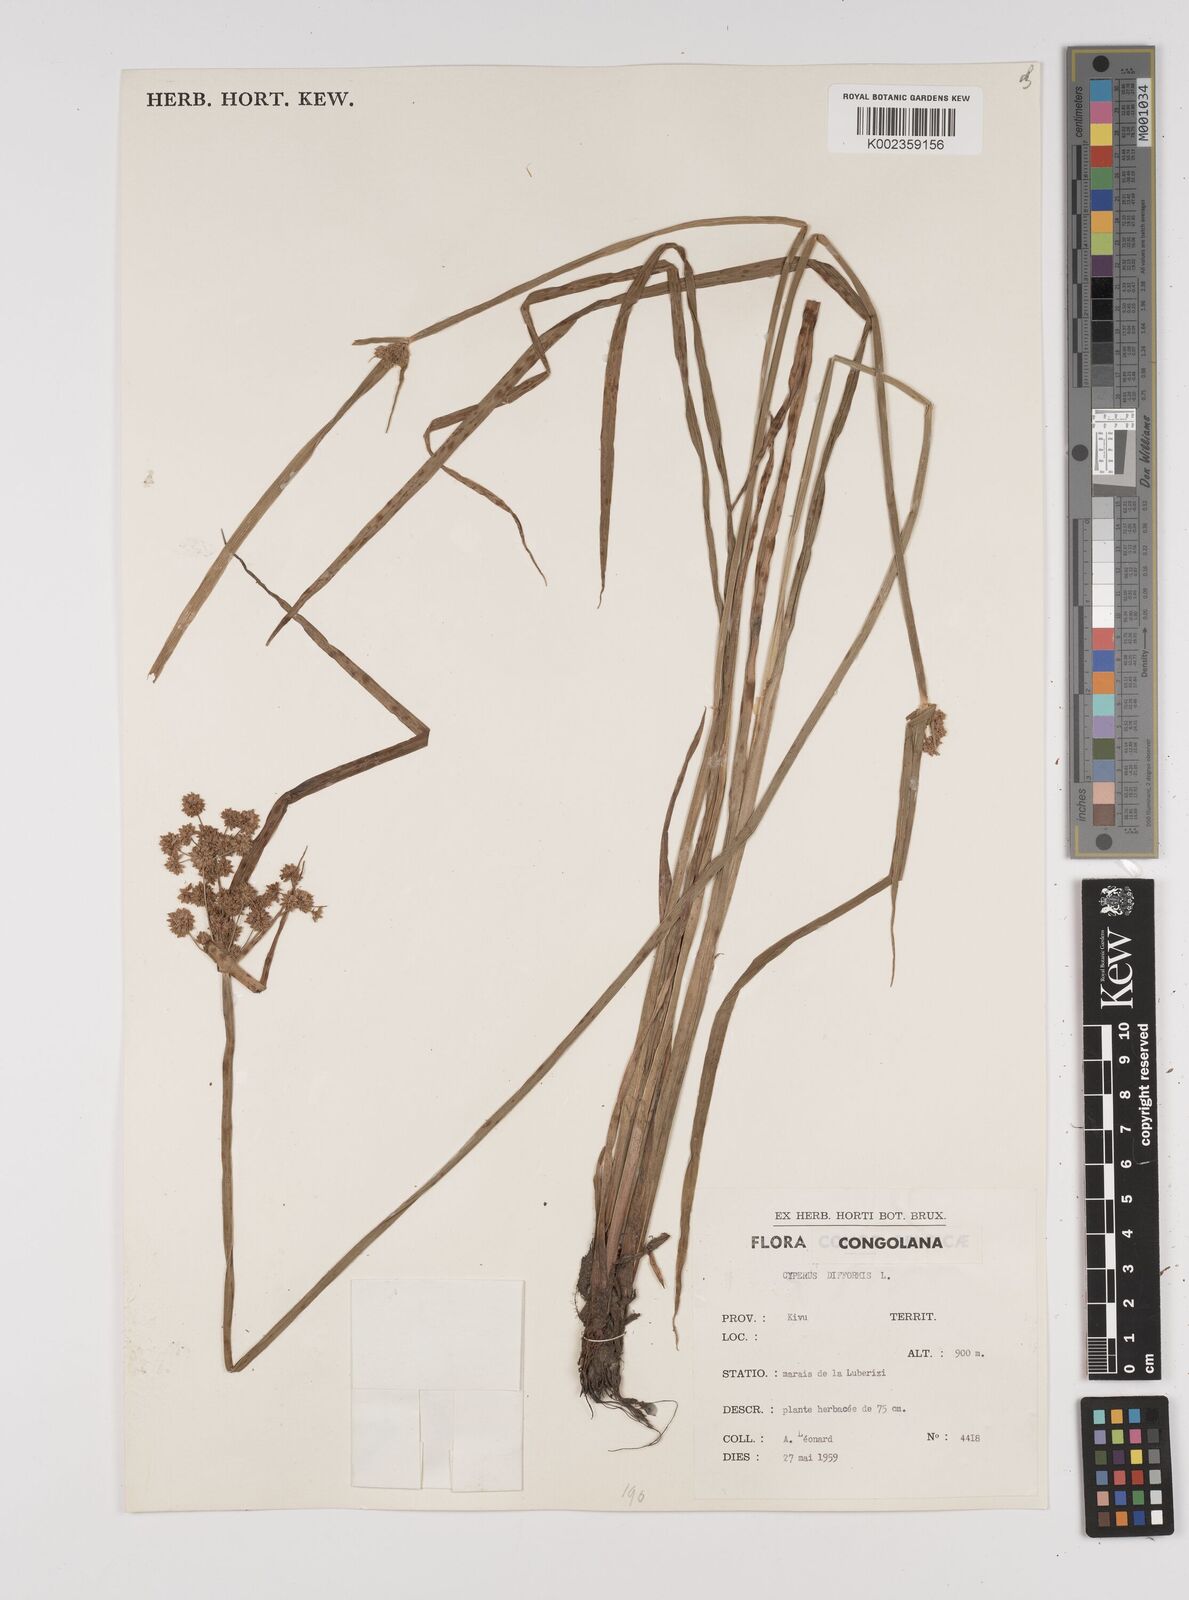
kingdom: Plantae
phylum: Tracheophyta
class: Liliopsida
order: Poales
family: Cyperaceae
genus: Cyperus
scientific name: Cyperus difformis
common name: Variable flatsedge
